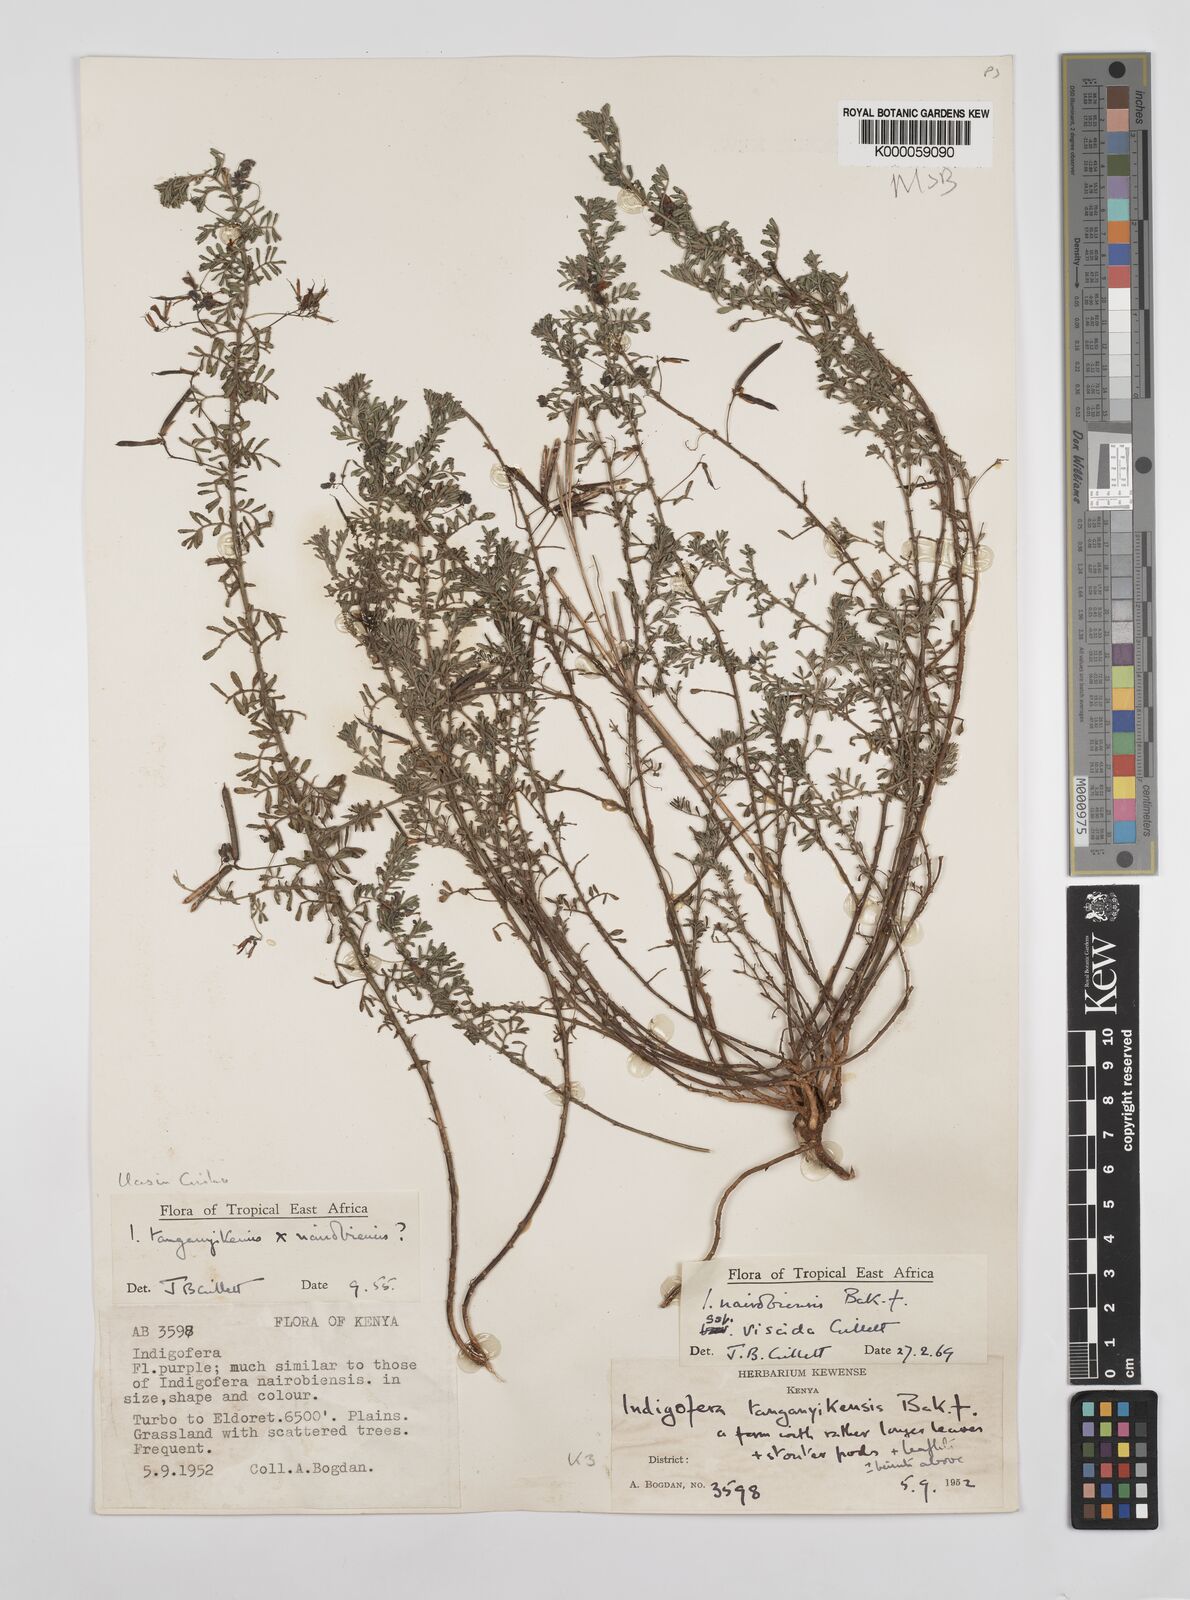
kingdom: Plantae
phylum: Tracheophyta
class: Magnoliopsida
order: Fabales
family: Fabaceae
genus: Indigofera
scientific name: Indigofera nairobiensis
